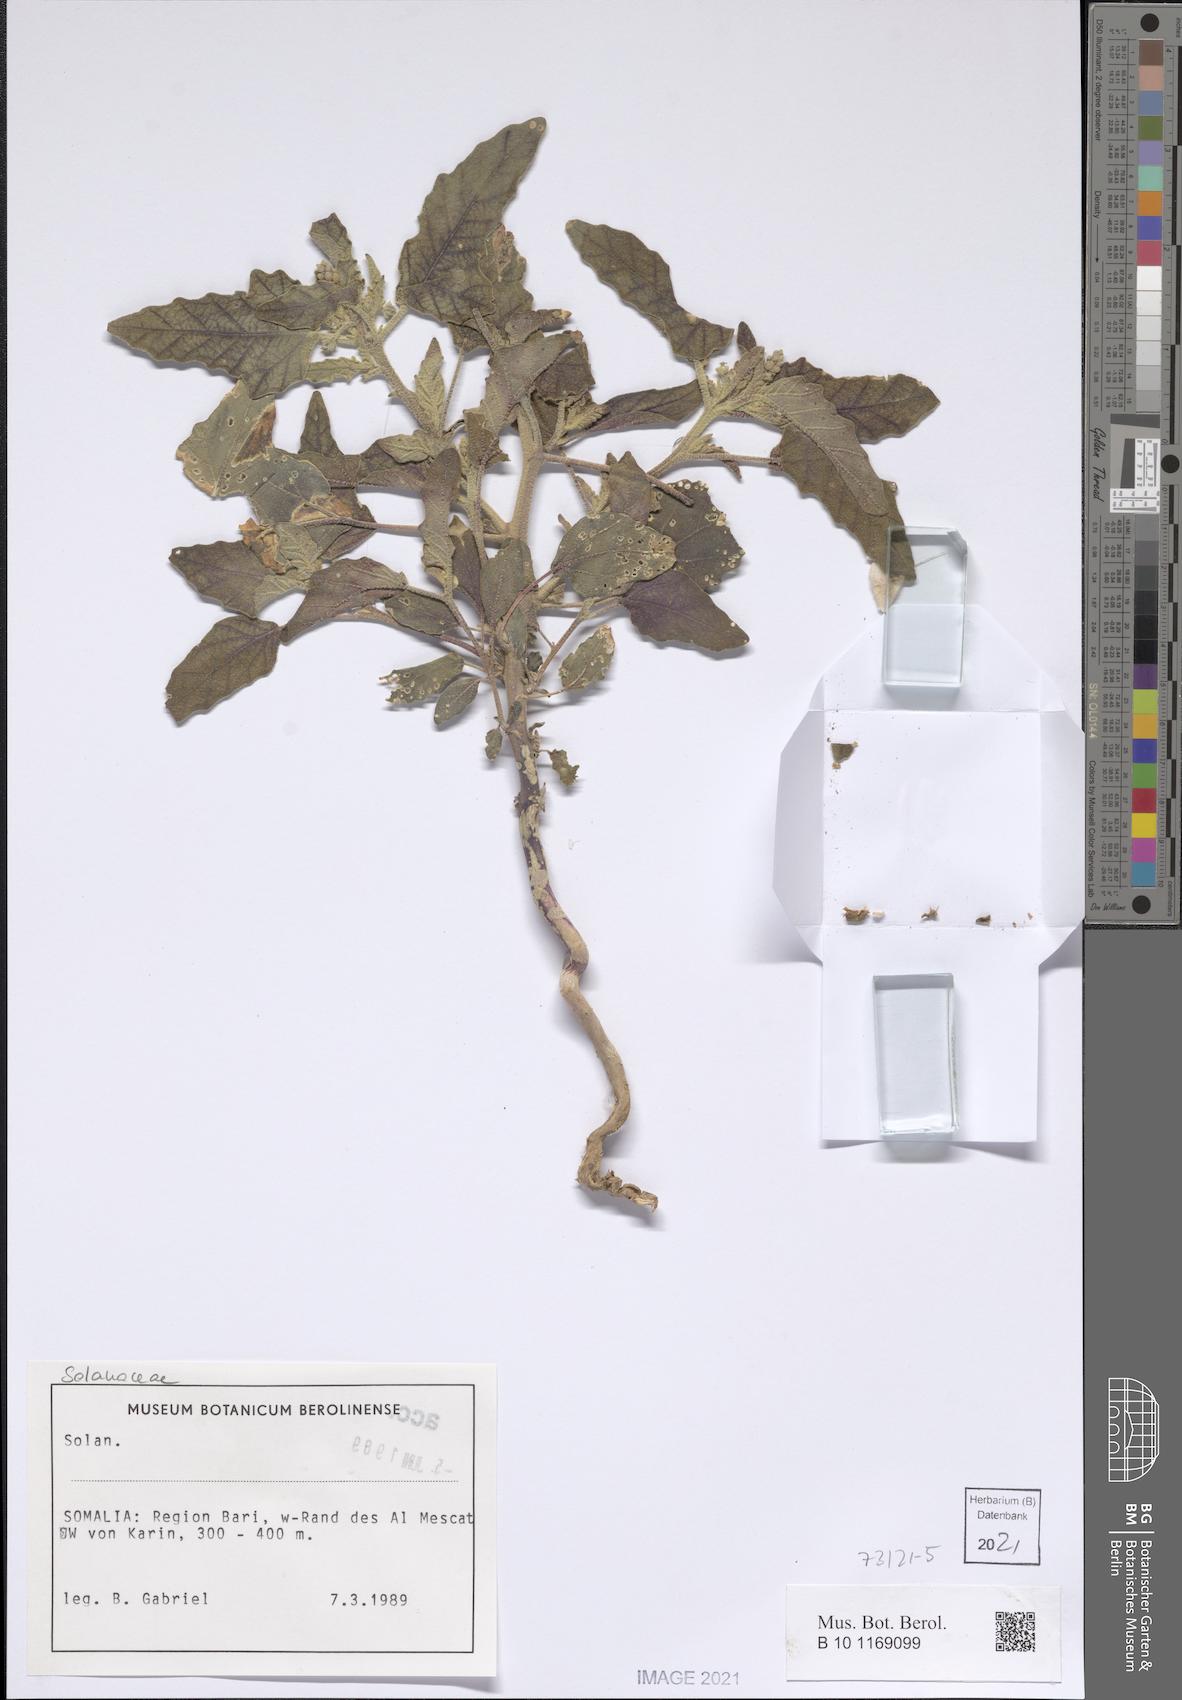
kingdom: Plantae
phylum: Tracheophyta
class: Magnoliopsida
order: Malpighiales
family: Euphorbiaceae
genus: Chrozophora
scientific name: Chrozophora oblongifolia
